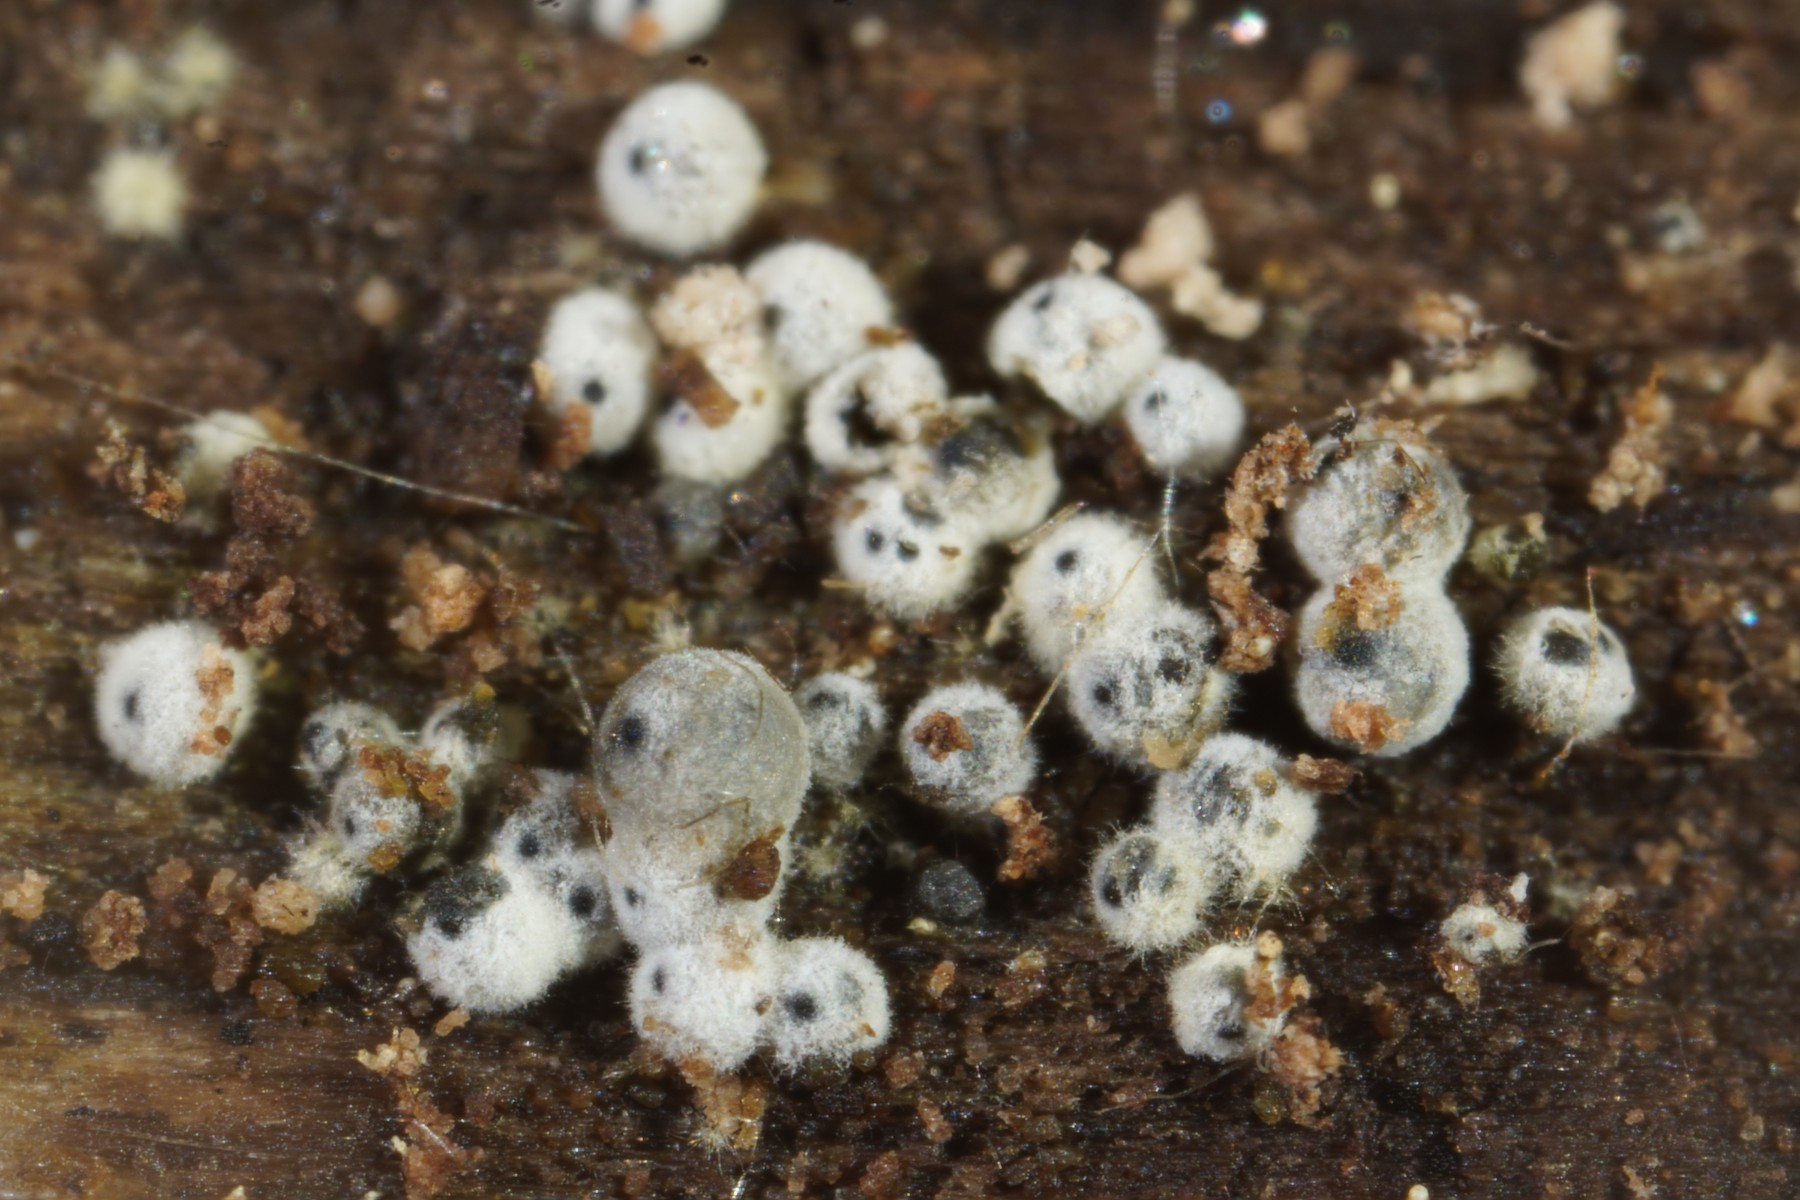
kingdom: Fungi
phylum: Ascomycota
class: Sordariomycetes
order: Sordariales
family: Lasiosphaeriaceae
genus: Lasiosphaeria
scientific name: Lasiosphaeria ovina
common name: fåre-kernesvamp
